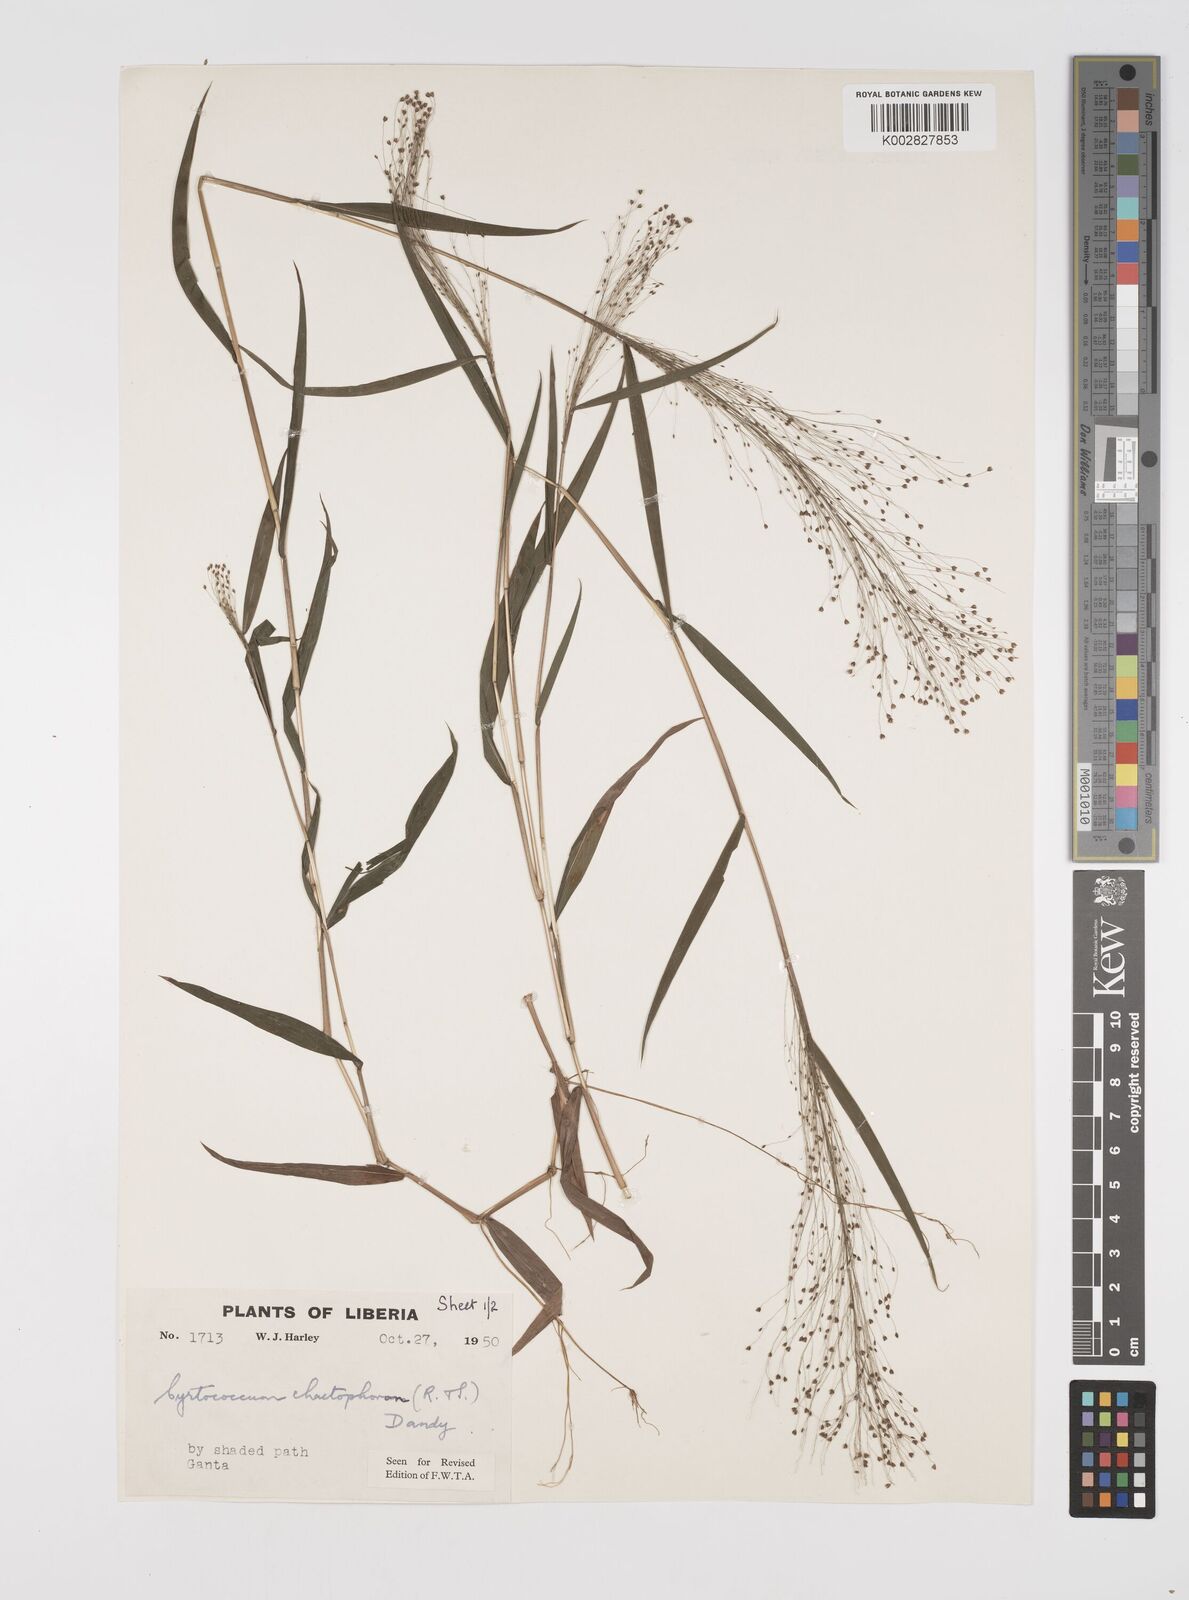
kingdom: Plantae
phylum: Tracheophyta
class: Liliopsida
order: Poales
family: Poaceae
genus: Cyrtococcum
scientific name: Cyrtococcum chaetophoron
